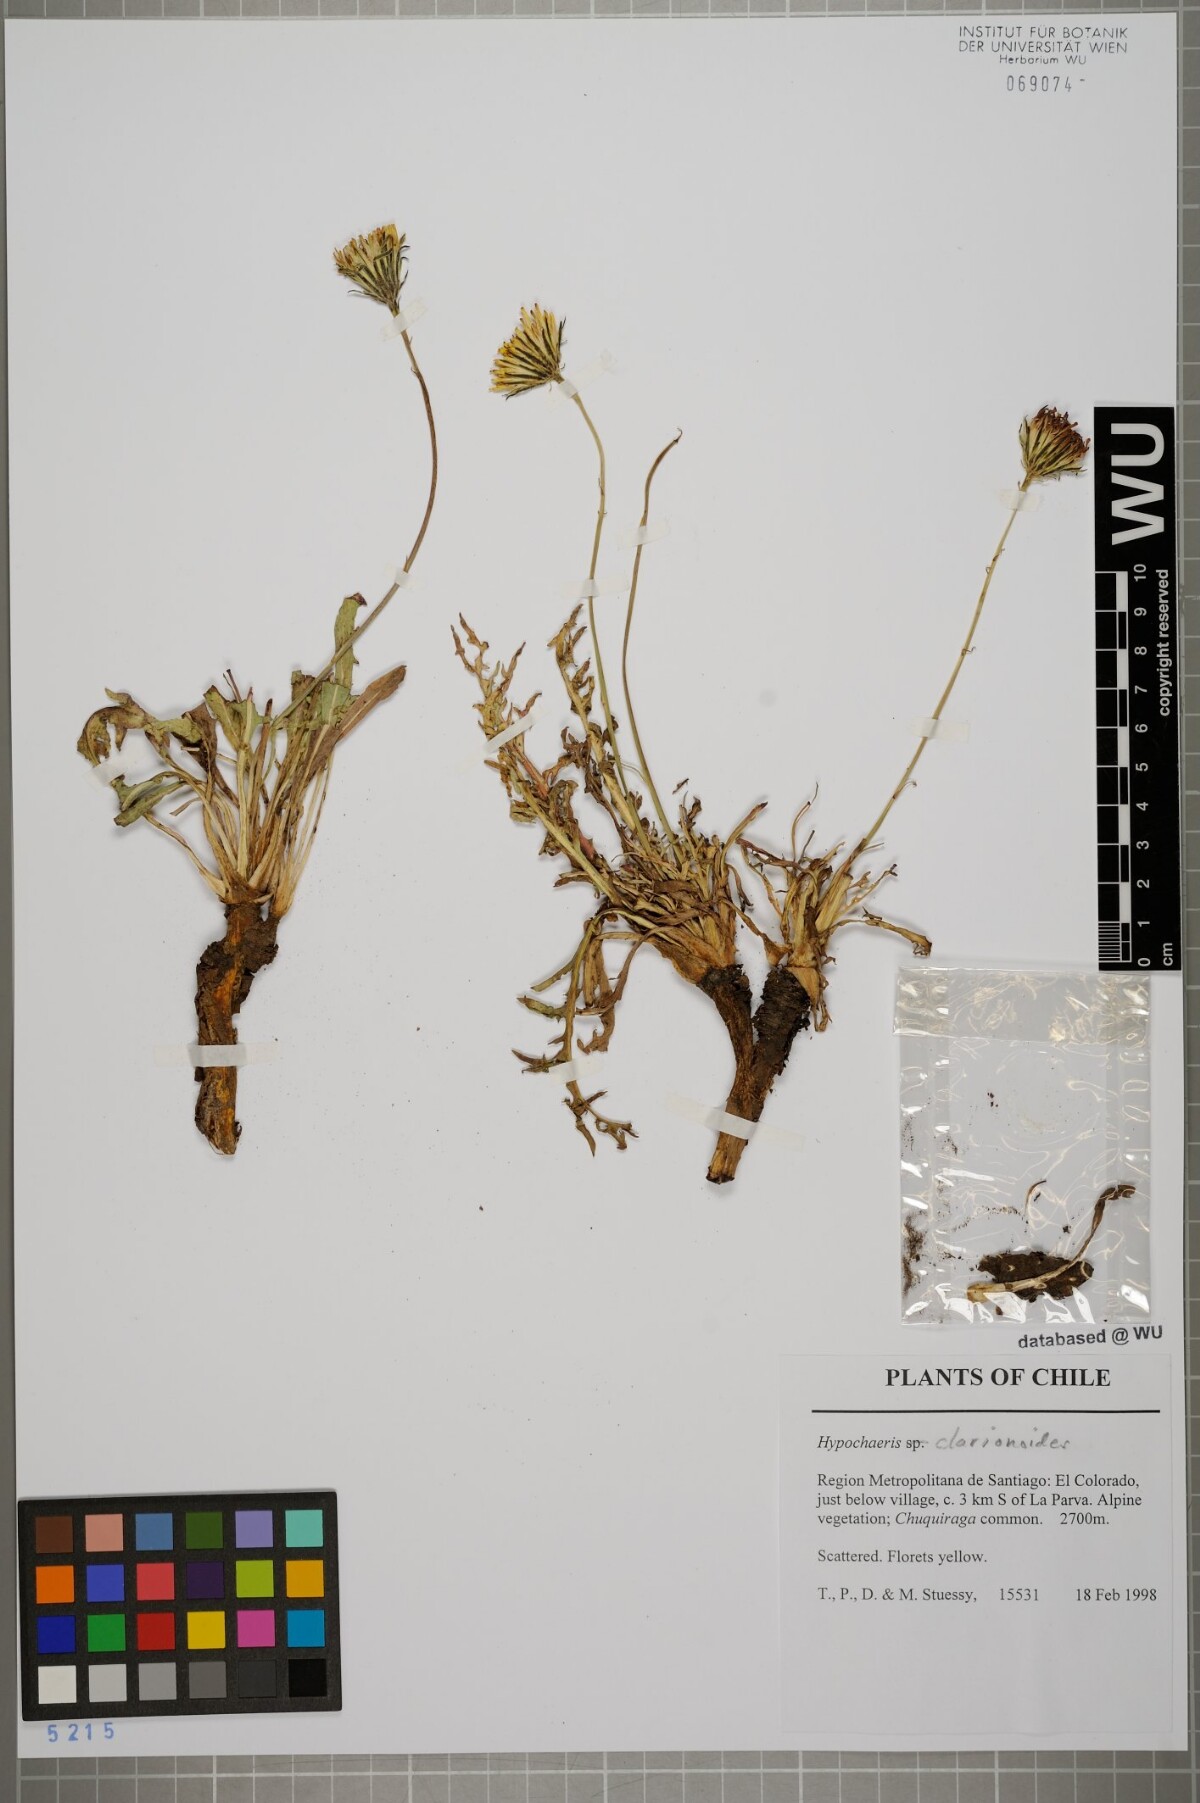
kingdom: Plantae
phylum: Tracheophyta
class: Magnoliopsida
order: Asterales
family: Asteraceae
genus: Hypochaeris
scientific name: Hypochaeris clarionoides
